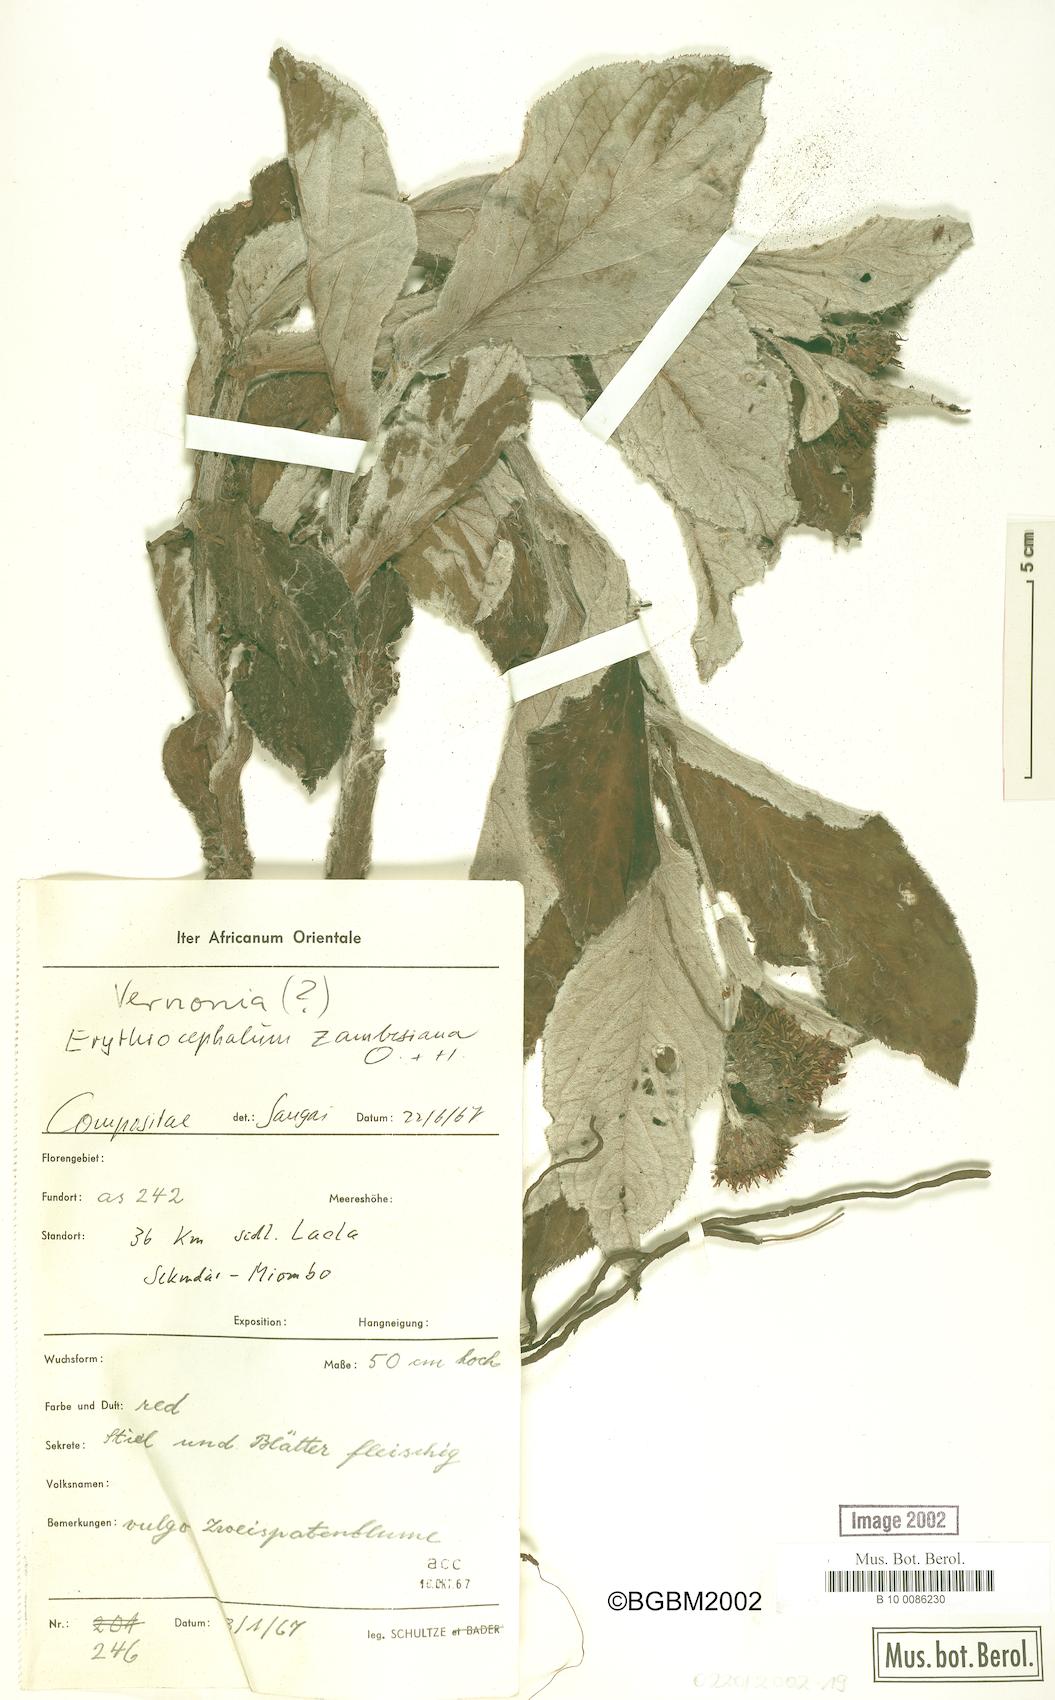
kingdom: Plantae
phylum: Tracheophyta
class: Magnoliopsida
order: Asterales
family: Asteraceae
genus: Erythrocephalum
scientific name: Erythrocephalum longifolium
